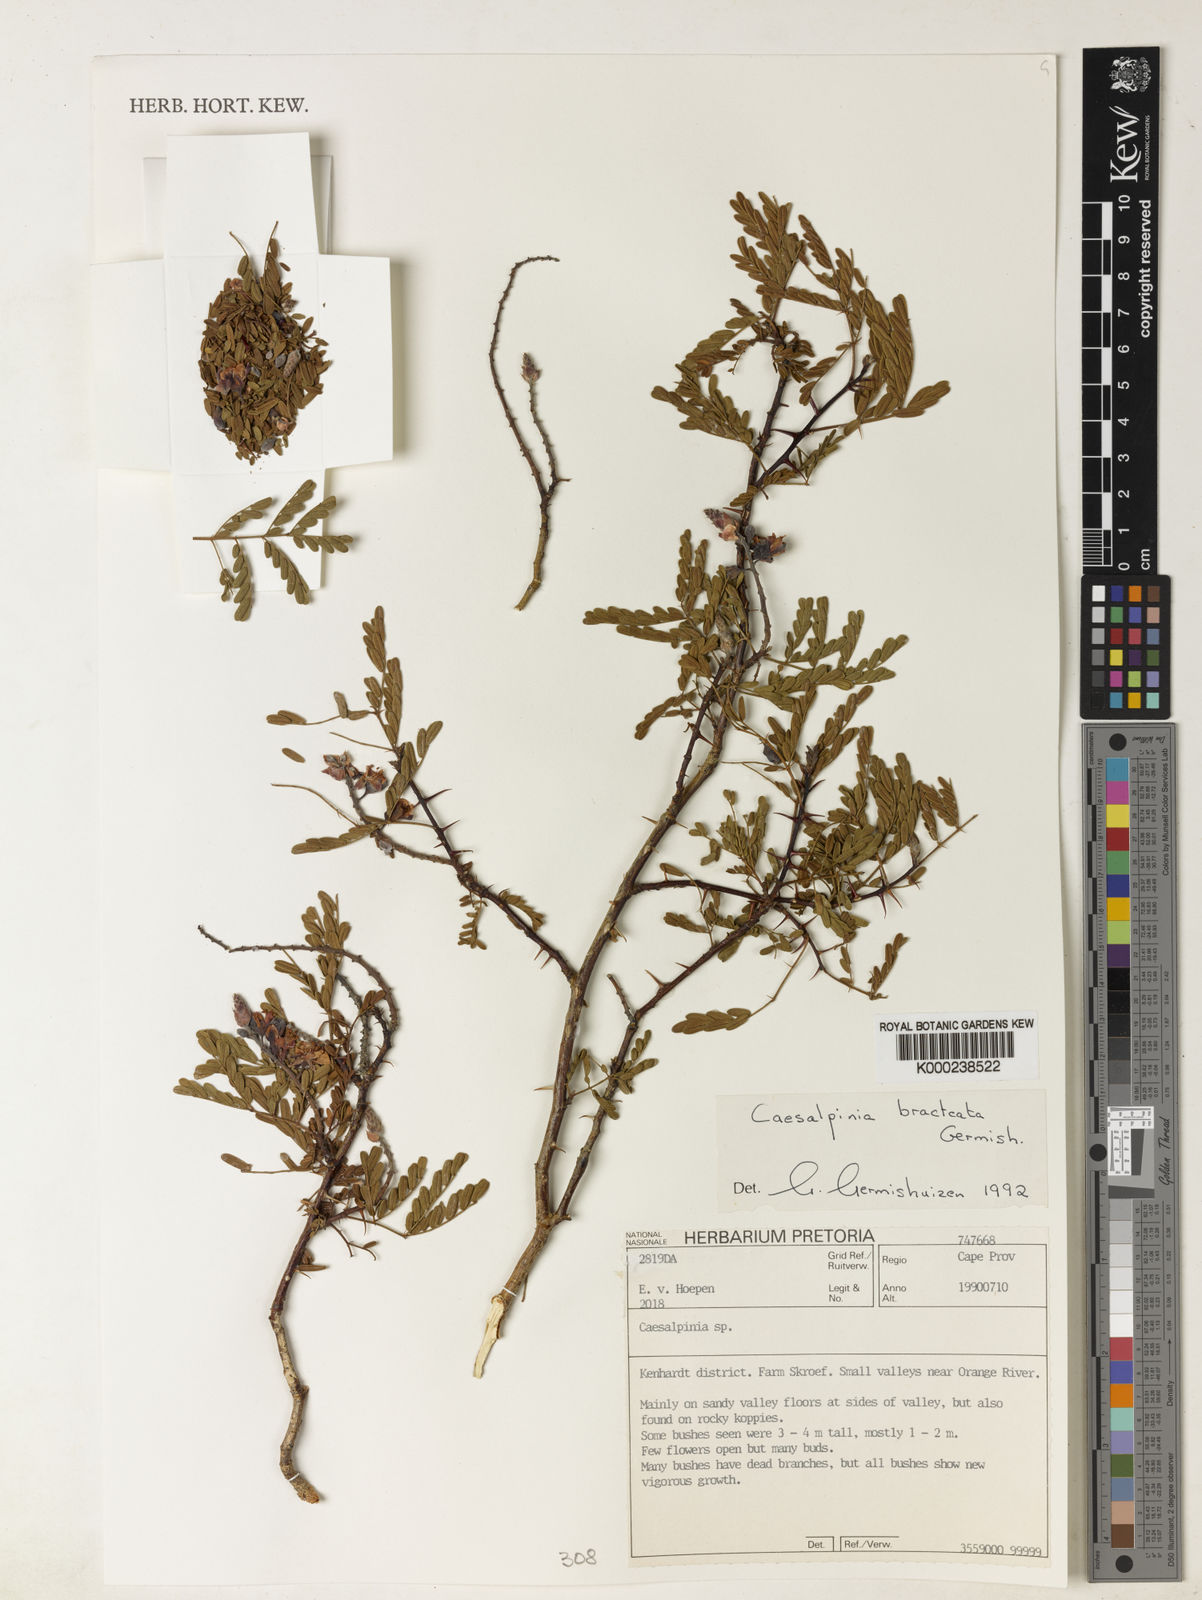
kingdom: Plantae
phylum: Tracheophyta
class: Magnoliopsida
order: Fabales
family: Fabaceae
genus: Gelrebia
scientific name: Gelrebia bracteata
